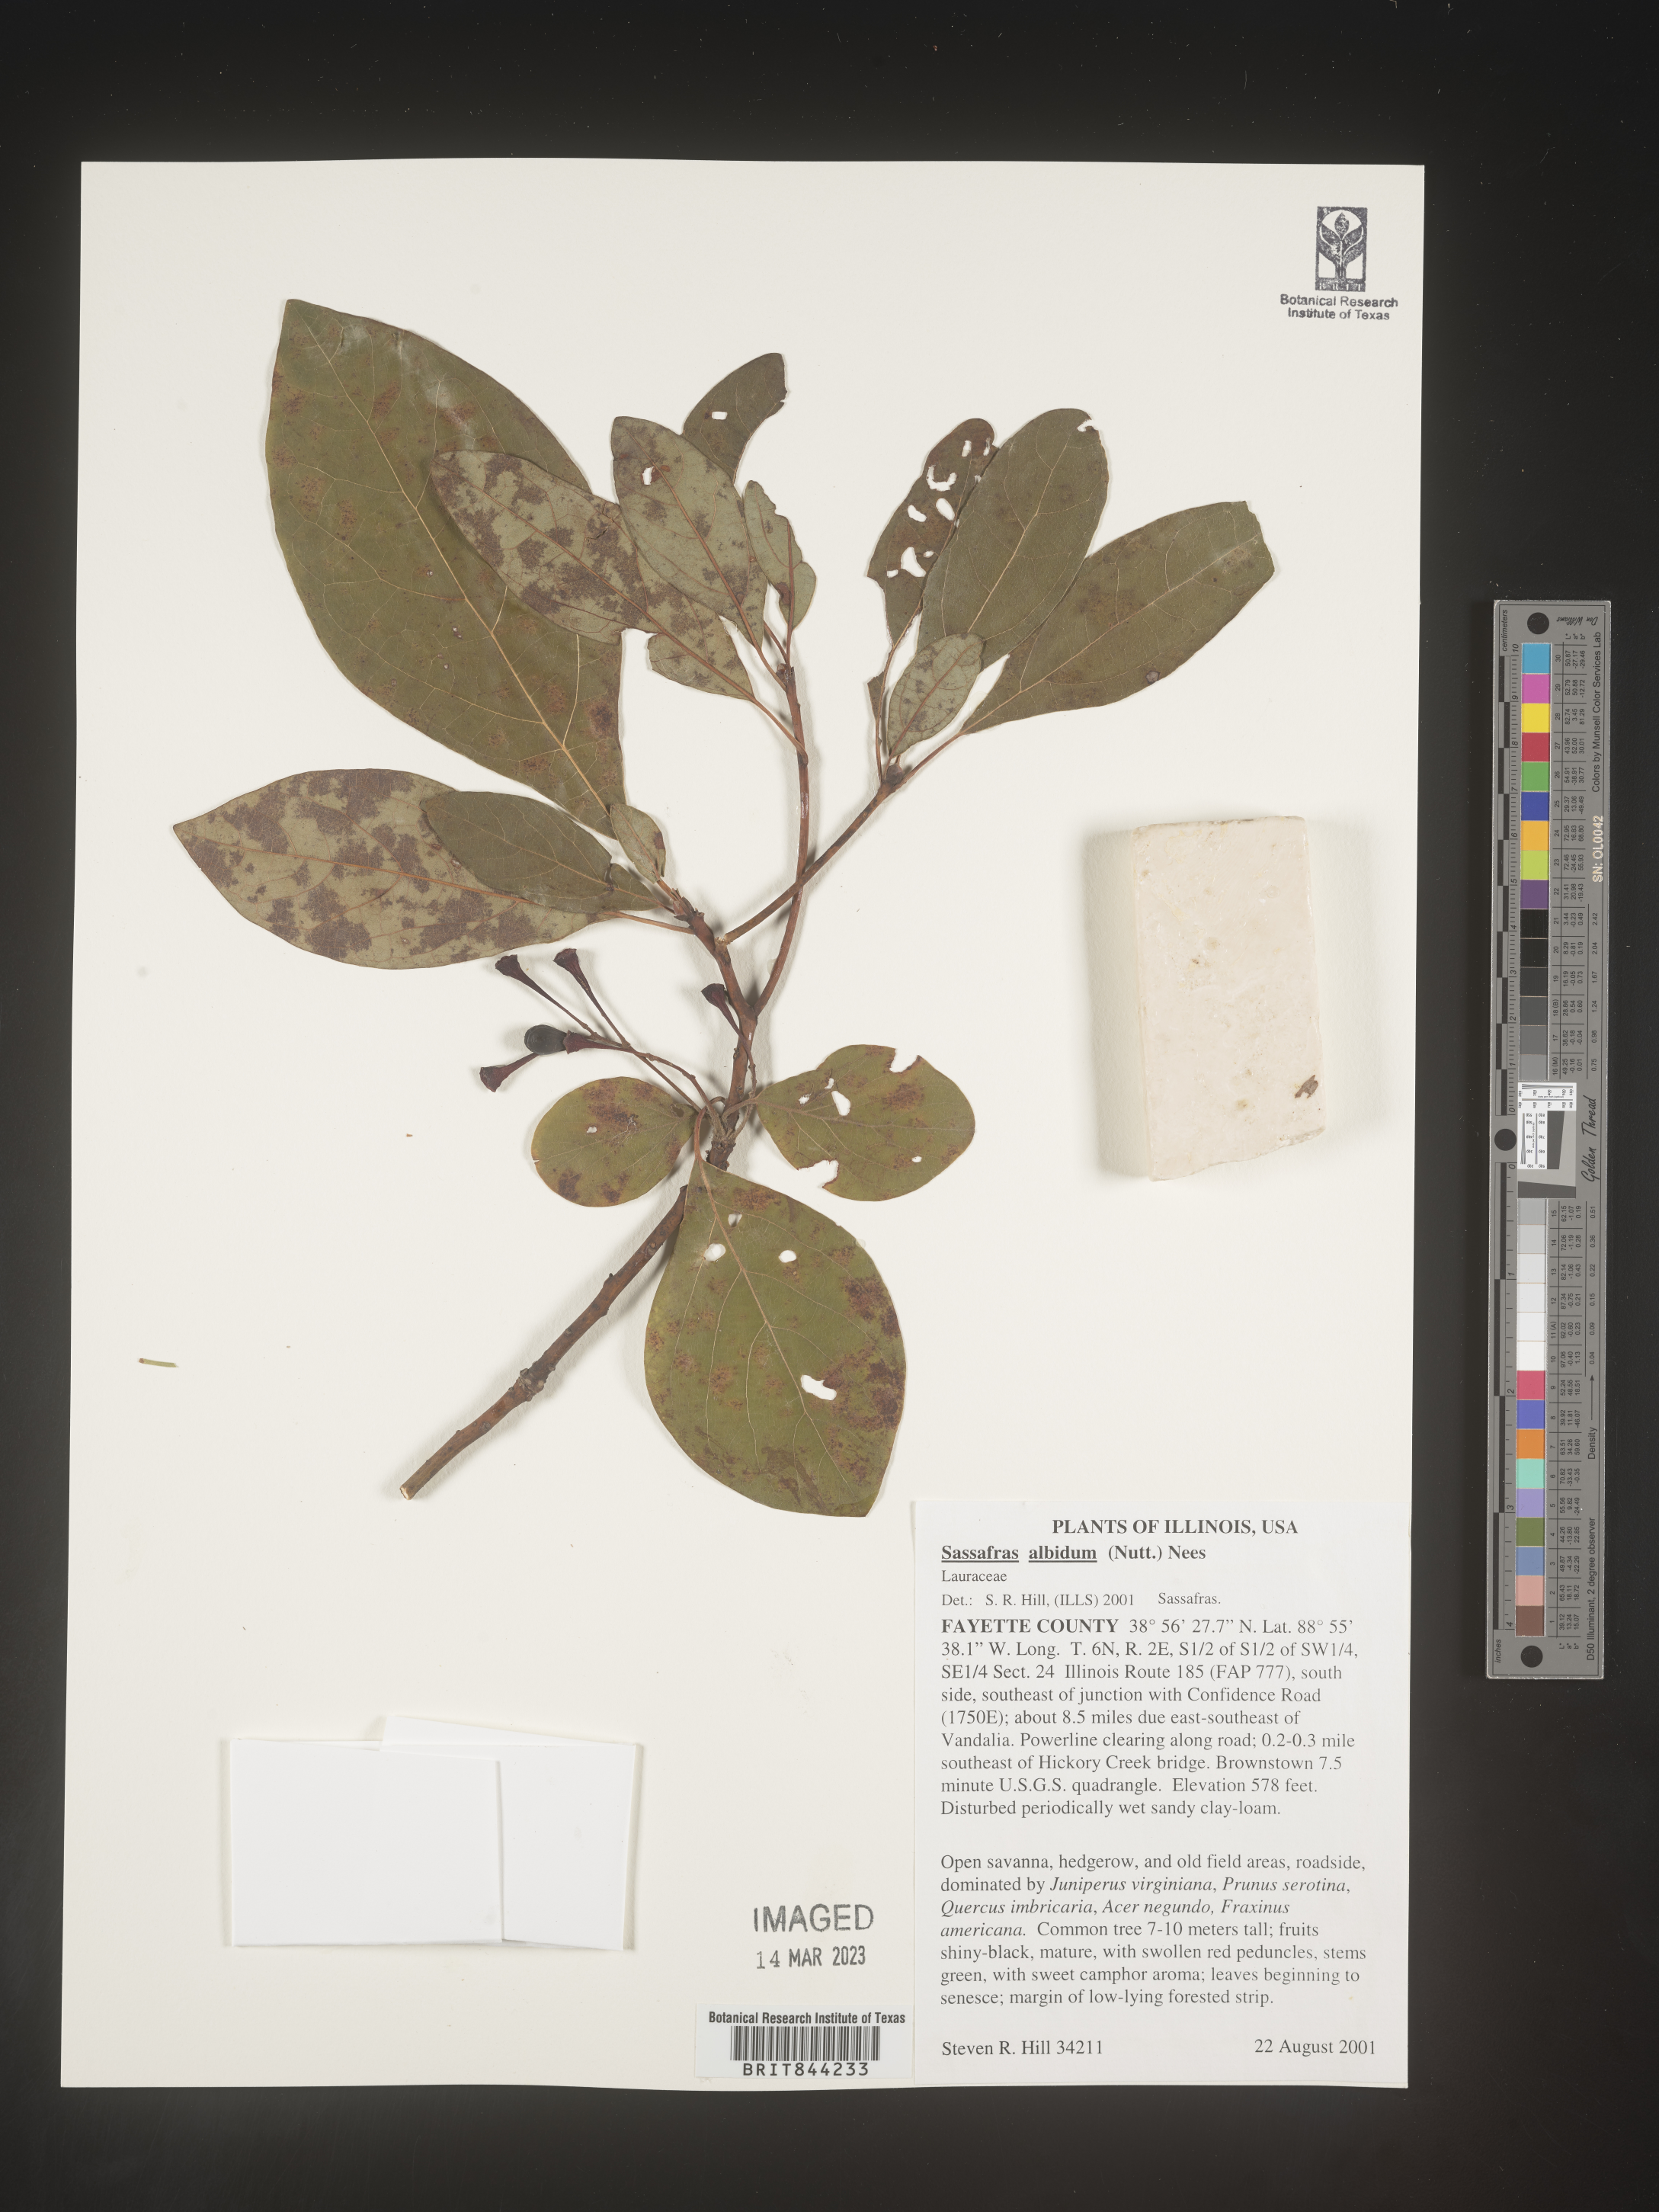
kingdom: Plantae
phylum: Tracheophyta
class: Magnoliopsida
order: Laurales
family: Lauraceae
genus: Sassafras
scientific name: Sassafras albidum
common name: Sassafras
